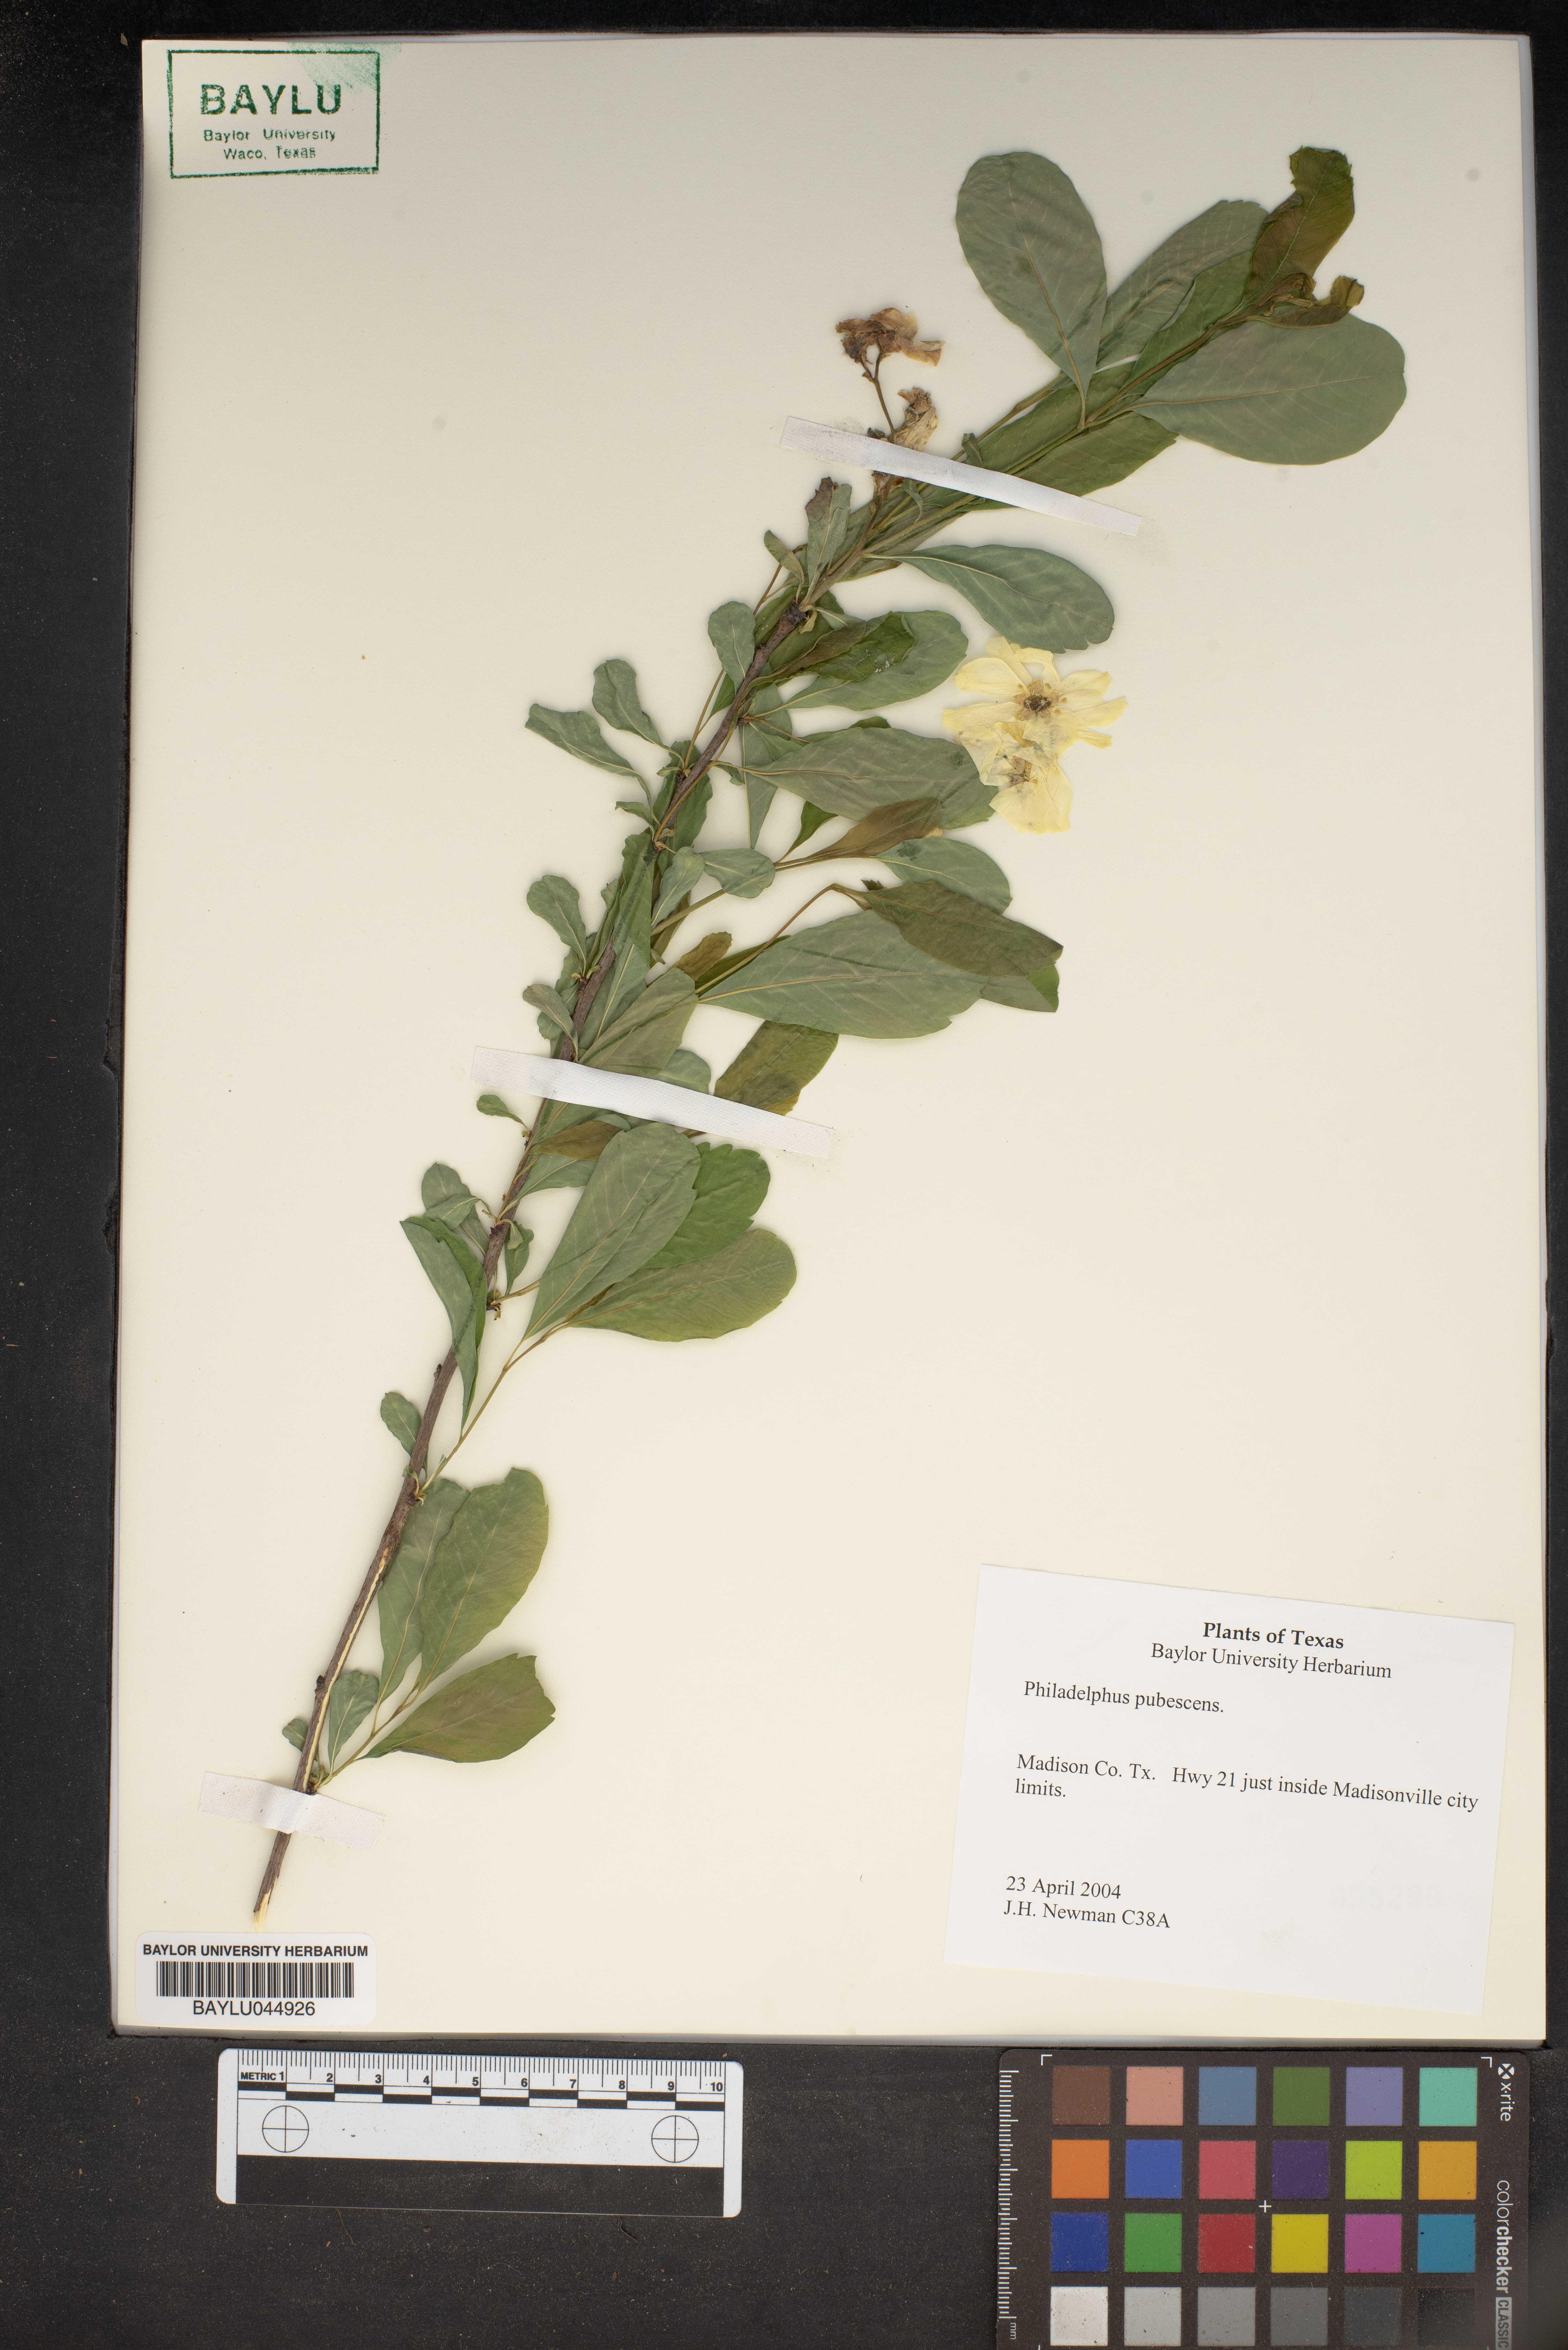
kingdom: Plantae
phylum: Tracheophyta
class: Magnoliopsida
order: Cornales
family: Hydrangeaceae
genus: Philadelphus
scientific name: Philadelphus pubescens
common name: Broadleaf mock orange
